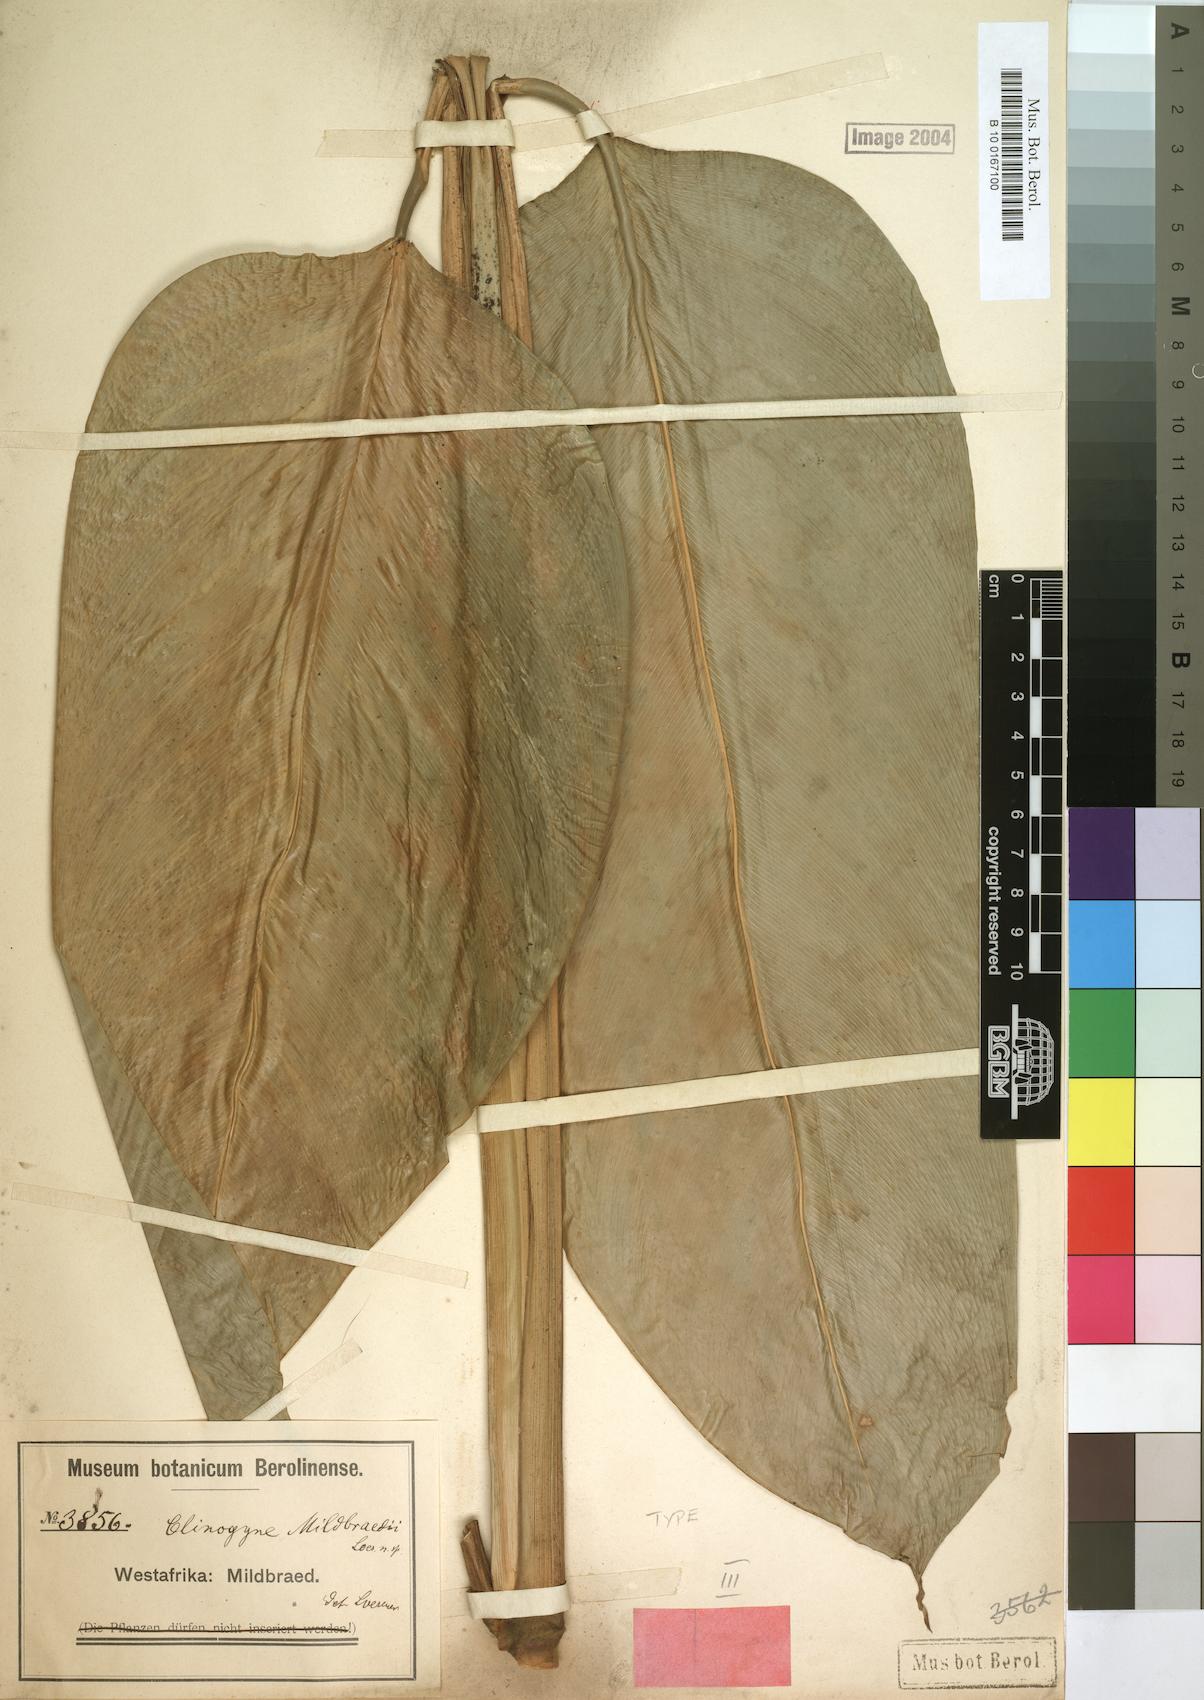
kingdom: Plantae
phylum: Tracheophyta
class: Liliopsida
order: Zingiberales
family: Marantaceae
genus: Marantochloa
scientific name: Marantochloa mildbraedii
